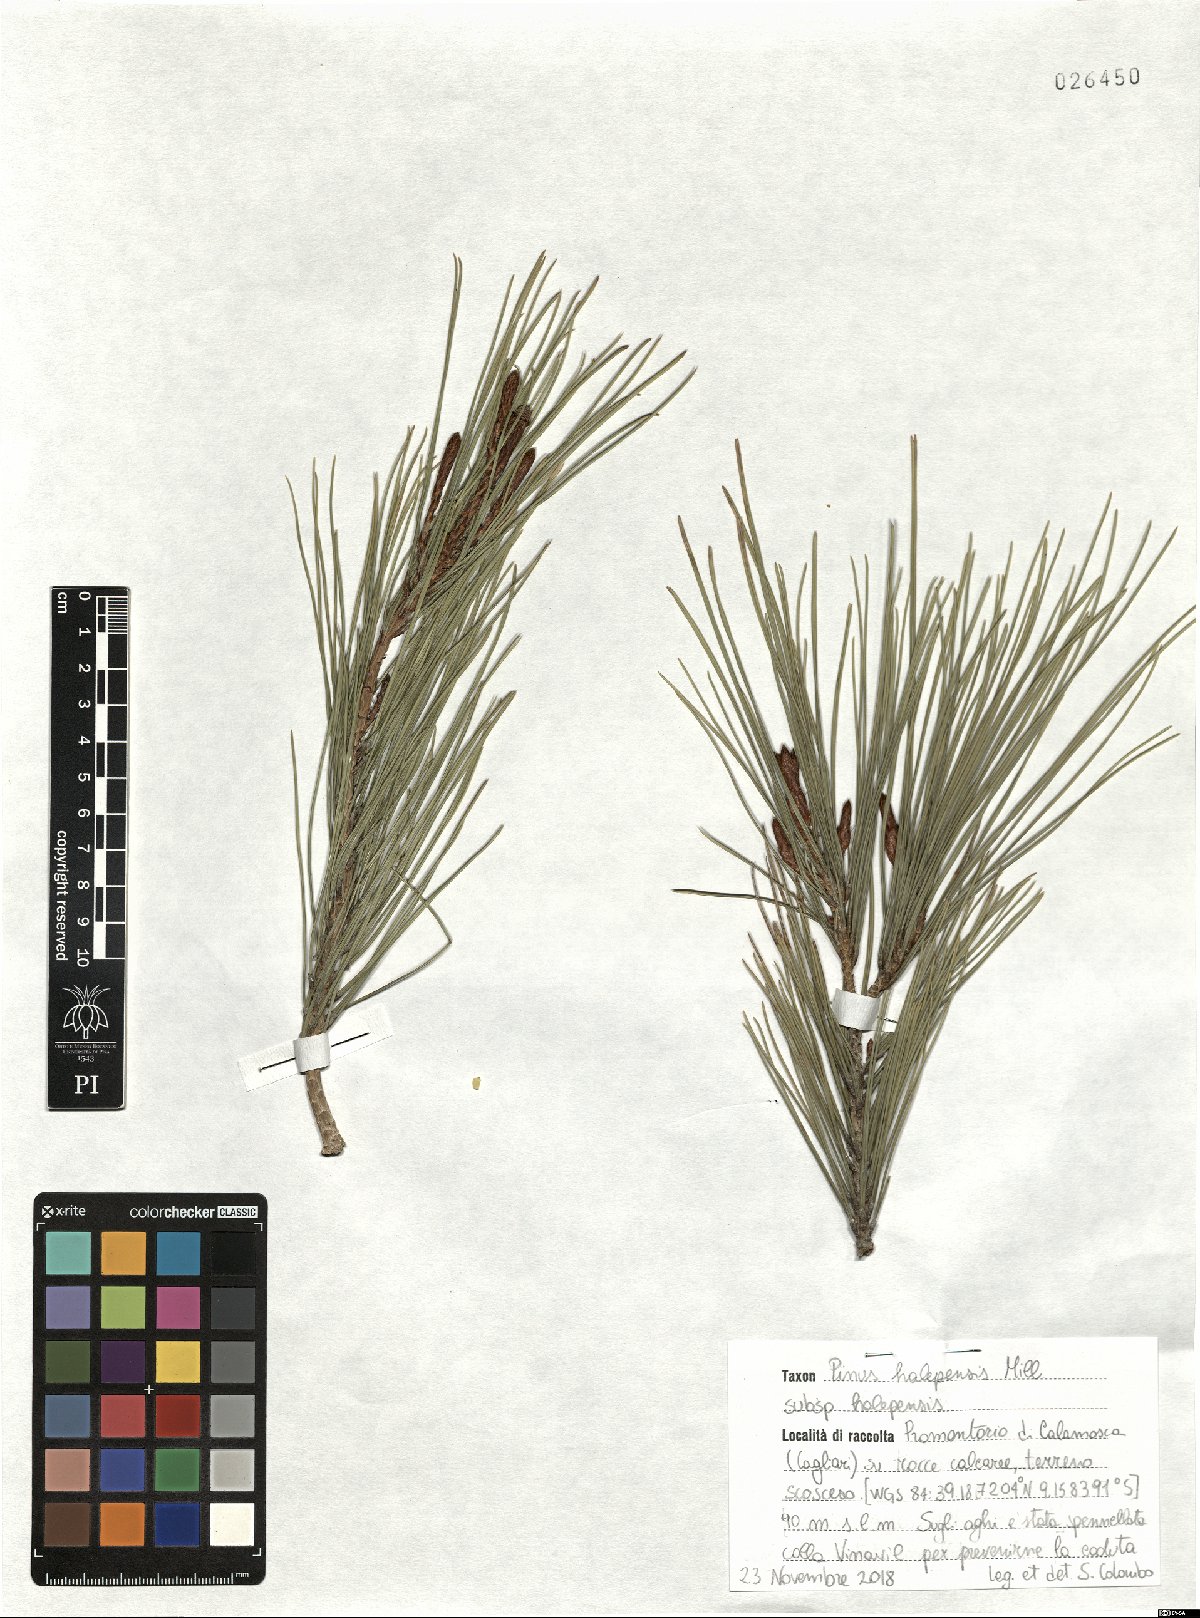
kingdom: Plantae
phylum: Tracheophyta
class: Pinopsida
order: Pinales
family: Pinaceae
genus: Pinus
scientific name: Pinus halepensis
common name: Aleppo pine
